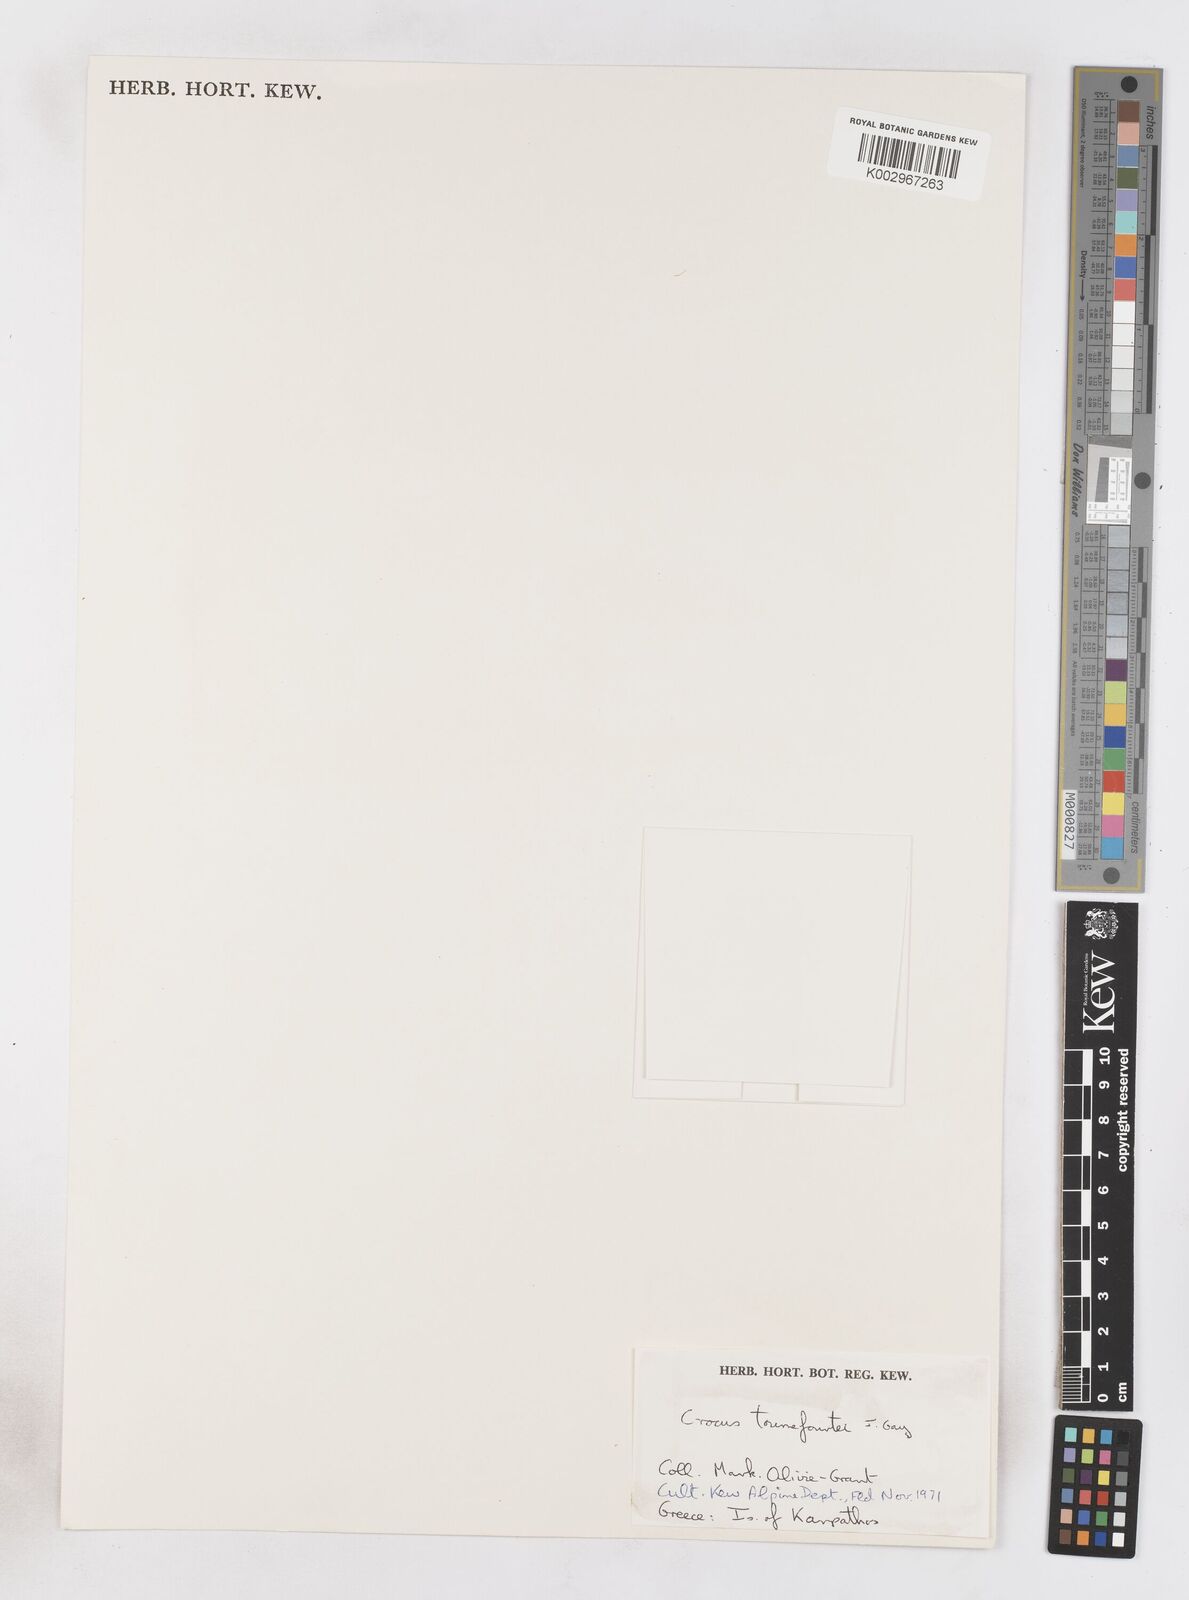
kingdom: Plantae
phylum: Tracheophyta
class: Liliopsida
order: Asparagales
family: Iridaceae
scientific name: Iridaceae
